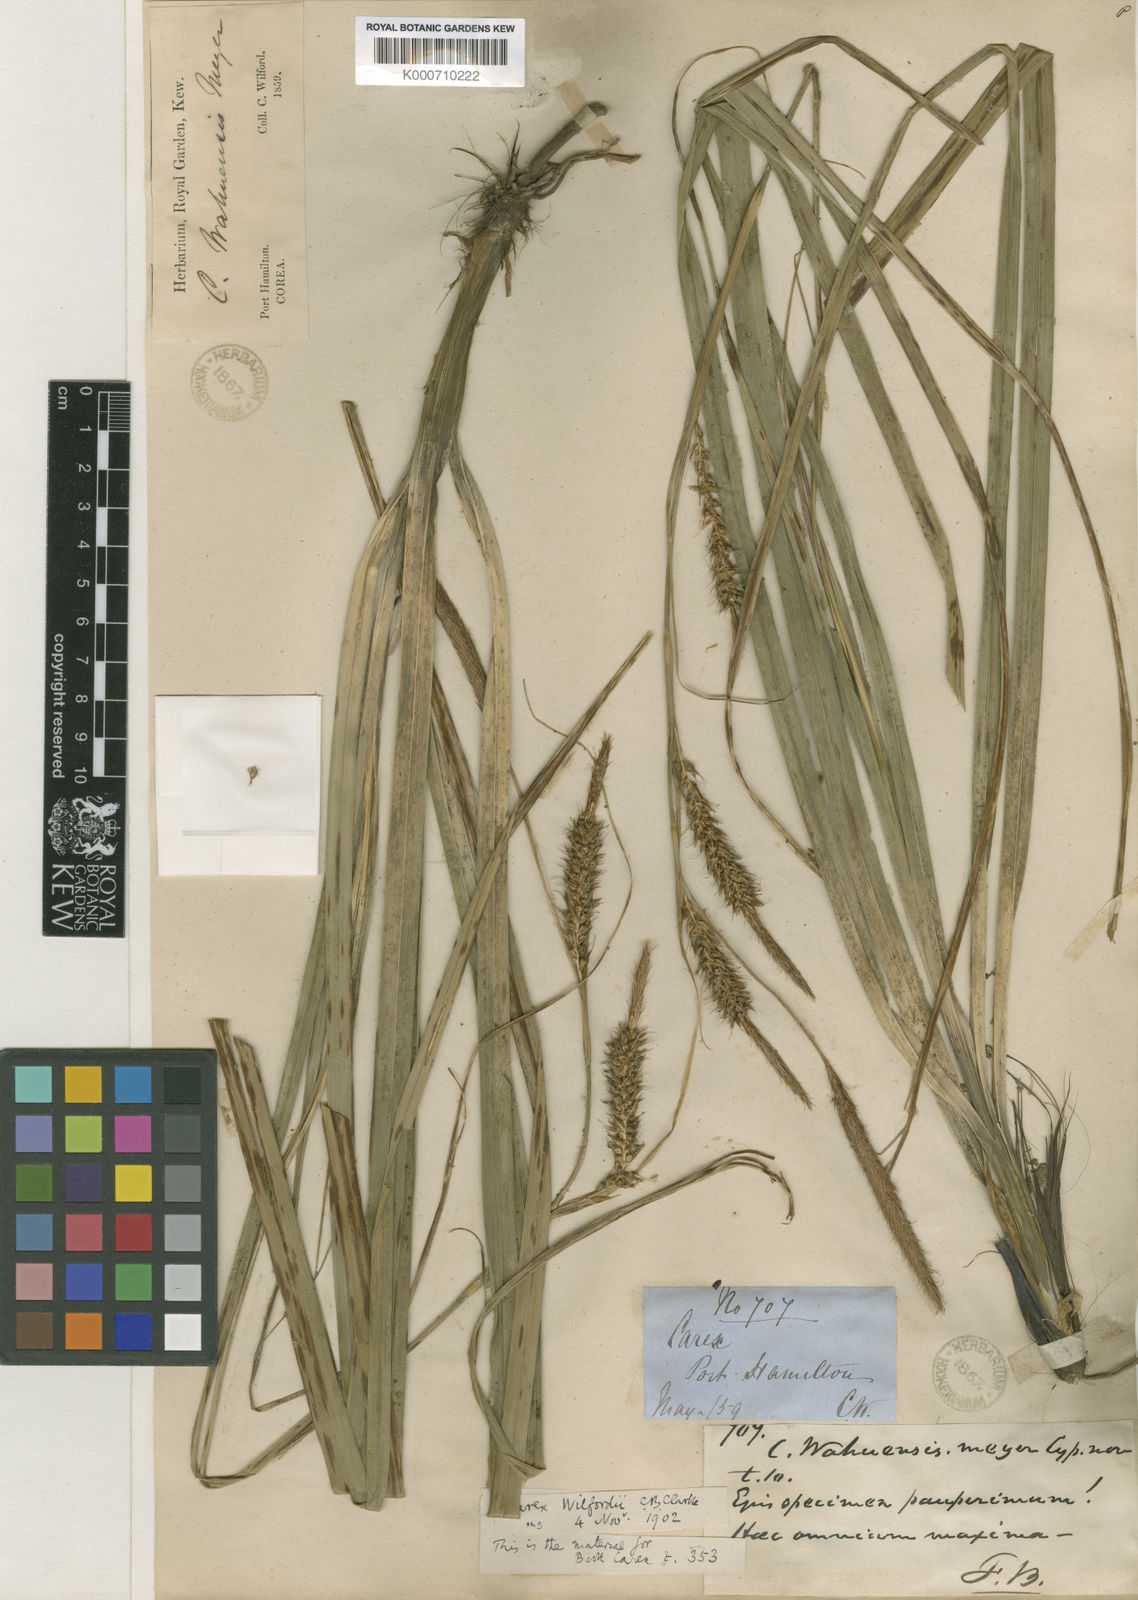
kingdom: Plantae
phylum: Tracheophyta
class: Liliopsida
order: Poales
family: Cyperaceae
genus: Carex
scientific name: Carex wahuensis
